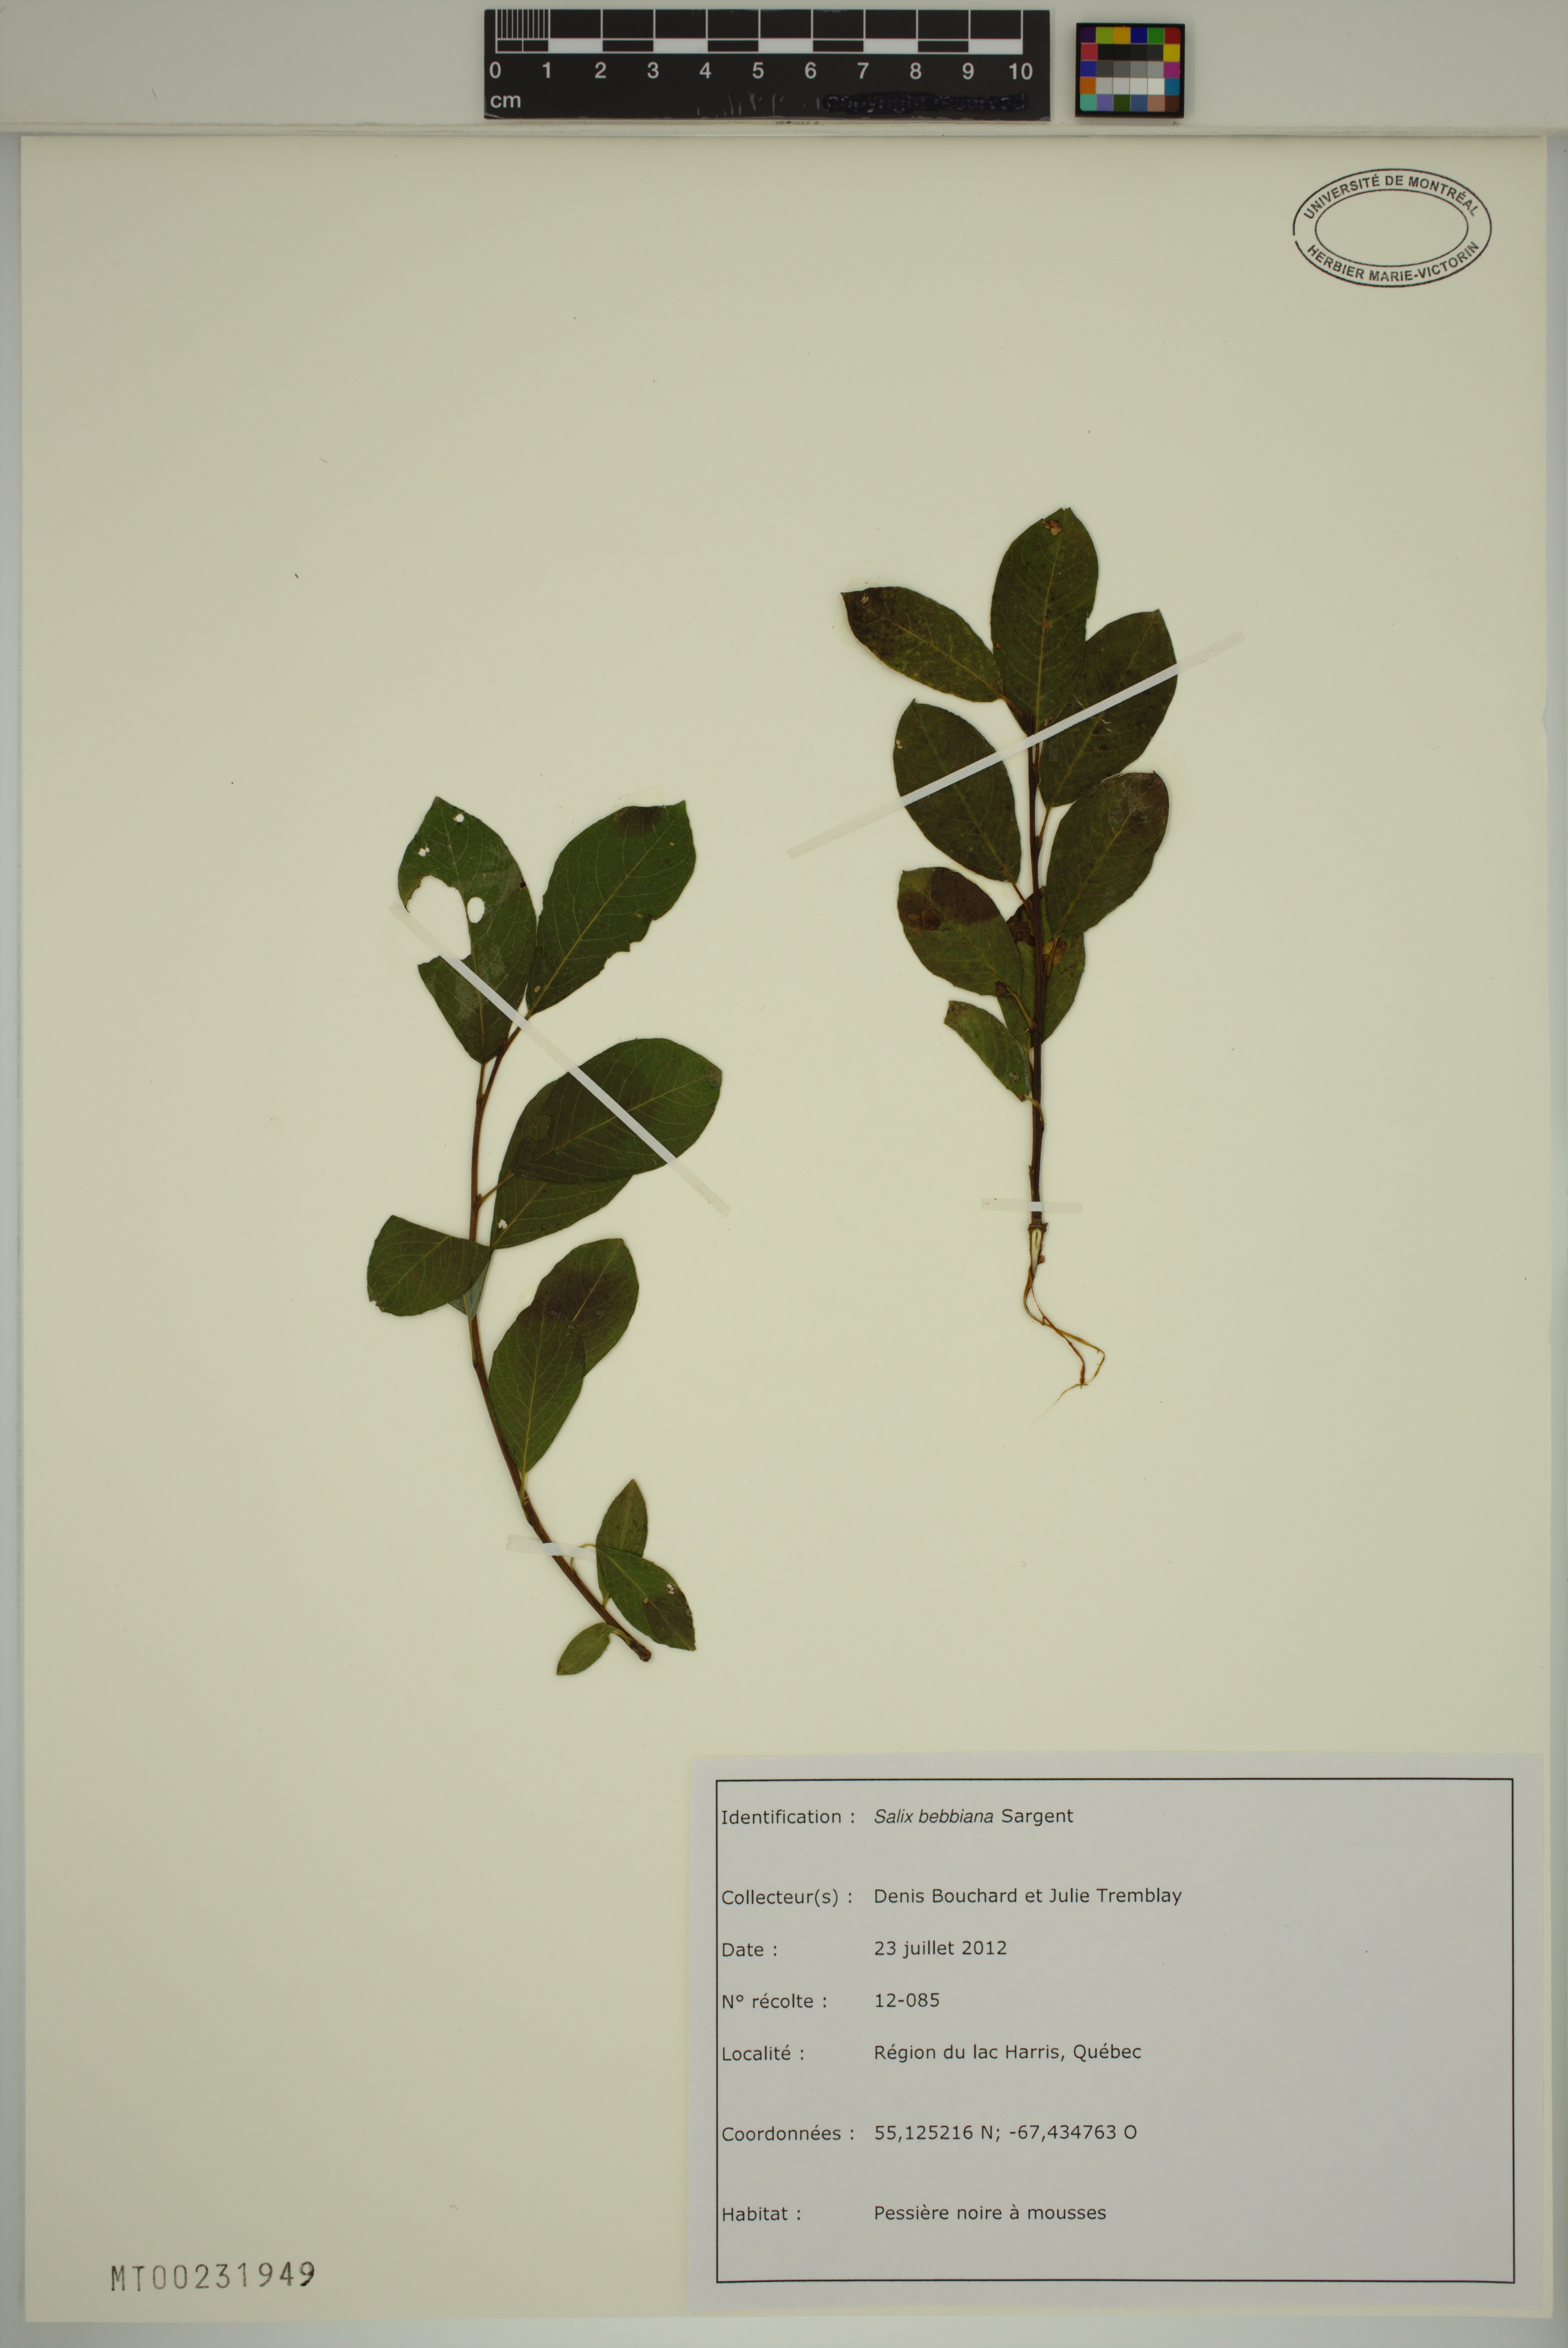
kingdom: Plantae
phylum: Tracheophyta
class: Magnoliopsida
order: Malpighiales
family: Salicaceae
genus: Salix
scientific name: Salix bebbiana
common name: Bebb's willow
